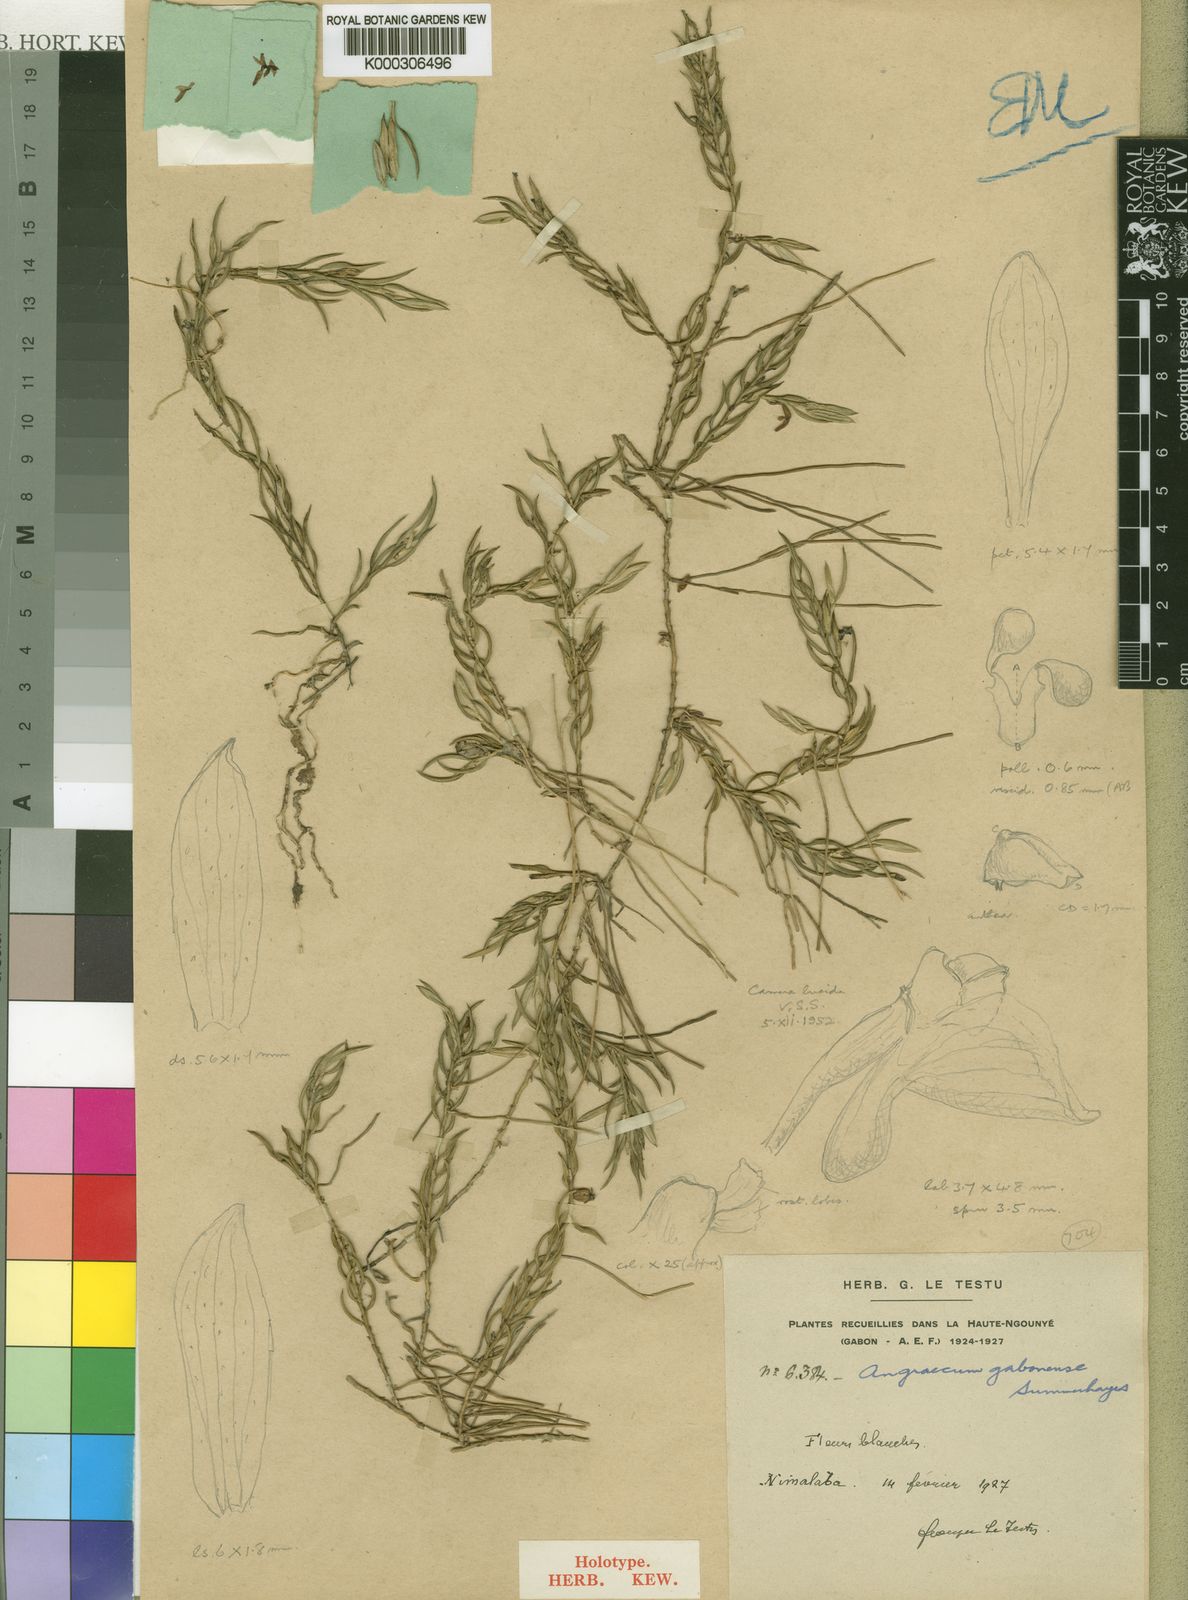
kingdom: Plantae
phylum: Tracheophyta
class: Liliopsida
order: Asparagales
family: Orchidaceae
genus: Afropectinariella
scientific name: Afropectinariella gabonensis
